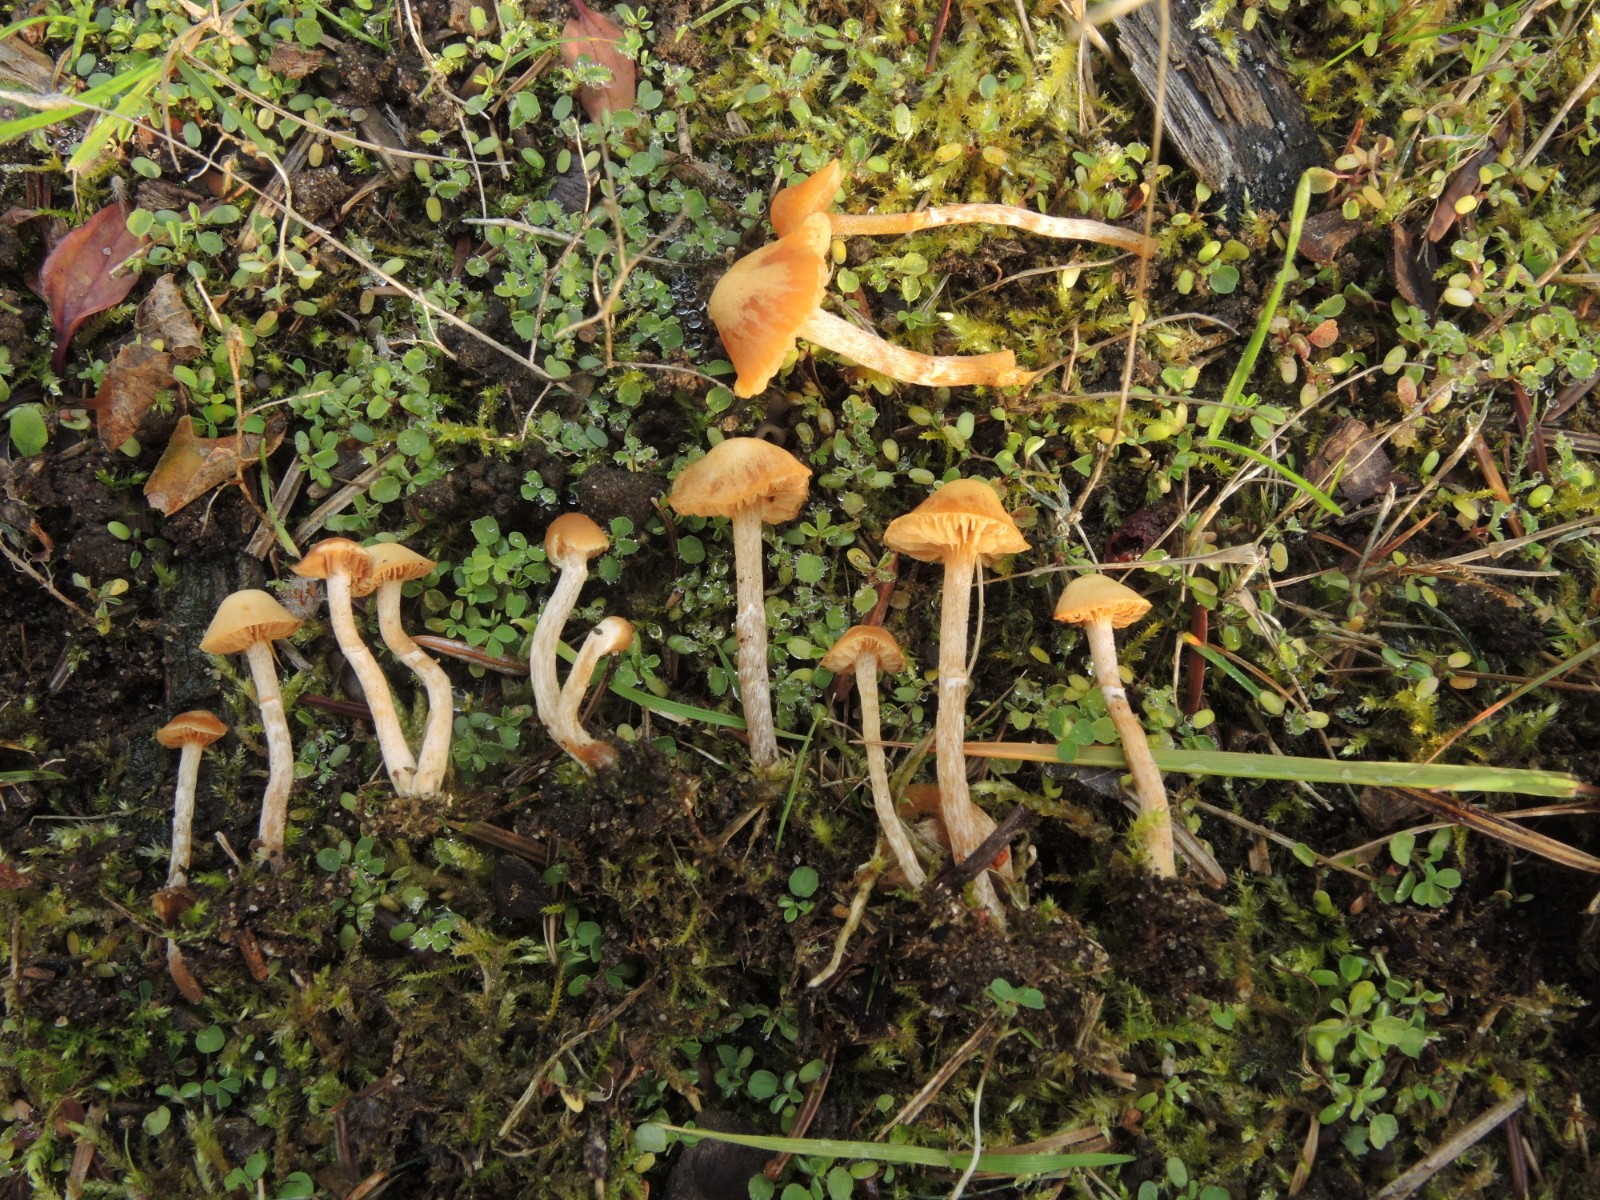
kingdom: Fungi
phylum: Basidiomycota
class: Agaricomycetes
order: Agaricales
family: Hymenogastraceae
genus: Galerina
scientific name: Galerina marginata
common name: randbæltet hjelmhat
